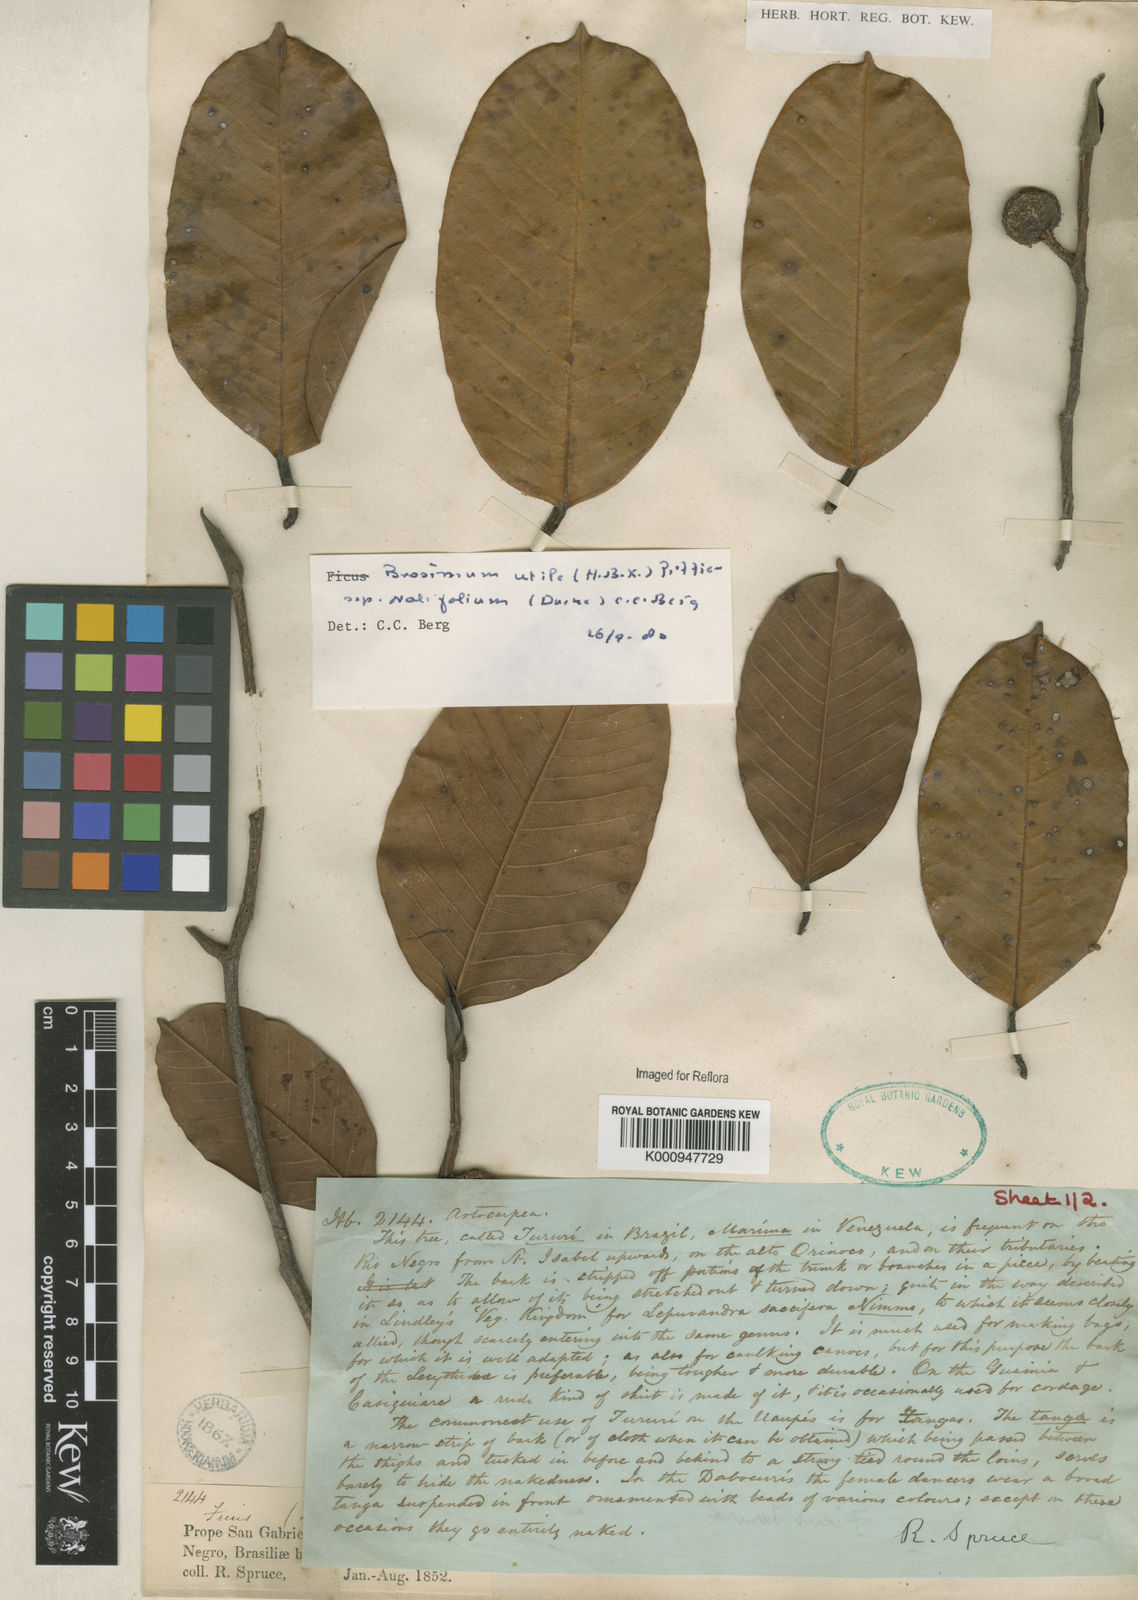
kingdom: Plantae
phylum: Tracheophyta
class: Magnoliopsida
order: Rosales
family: Moraceae
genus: Brosimum
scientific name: Brosimum utile
